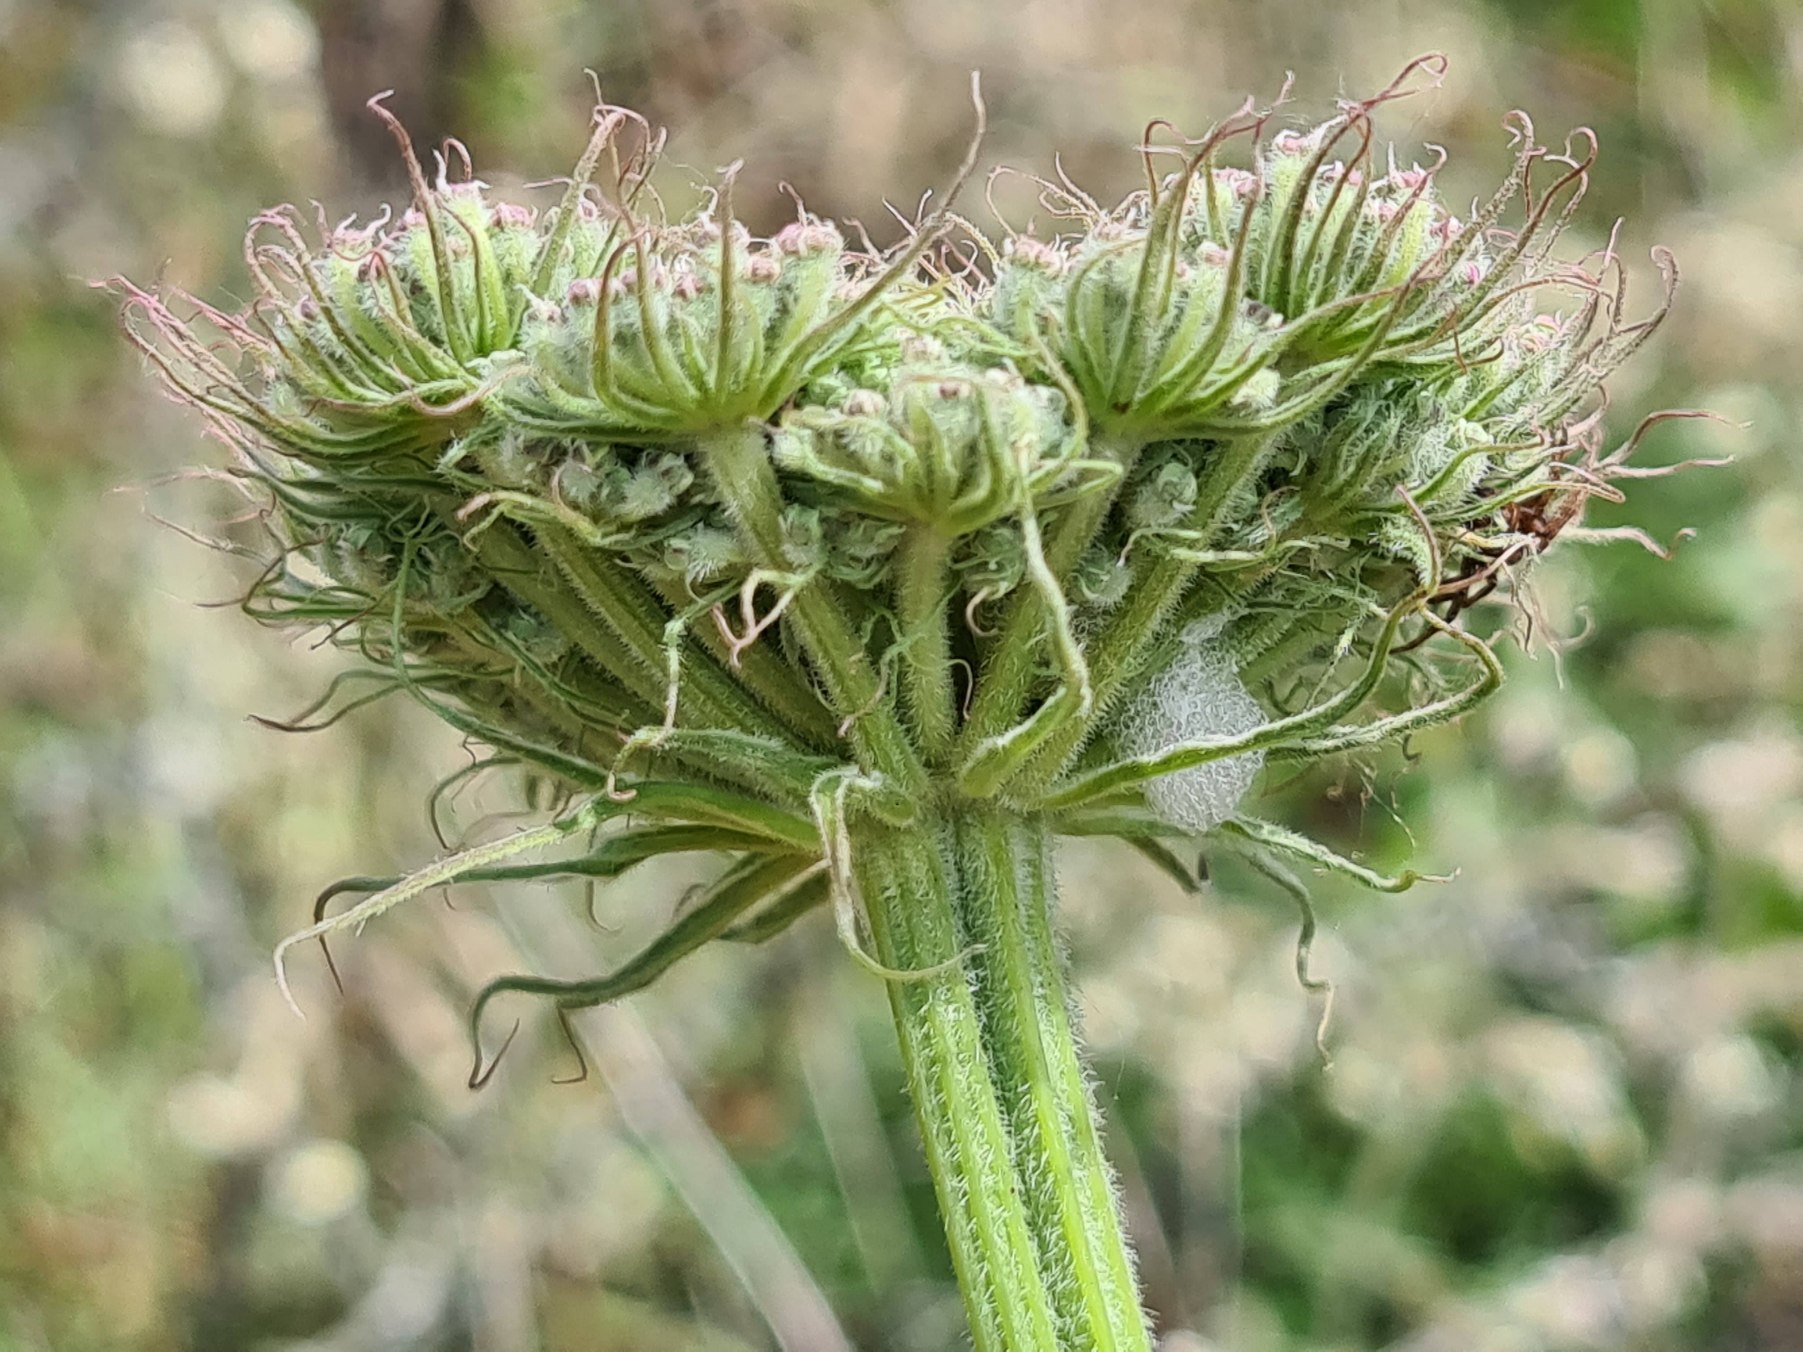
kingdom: Plantae
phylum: Tracheophyta
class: Magnoliopsida
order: Apiales
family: Apiaceae
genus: Seseli
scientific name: Seseli libanotis
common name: Hjorterod
